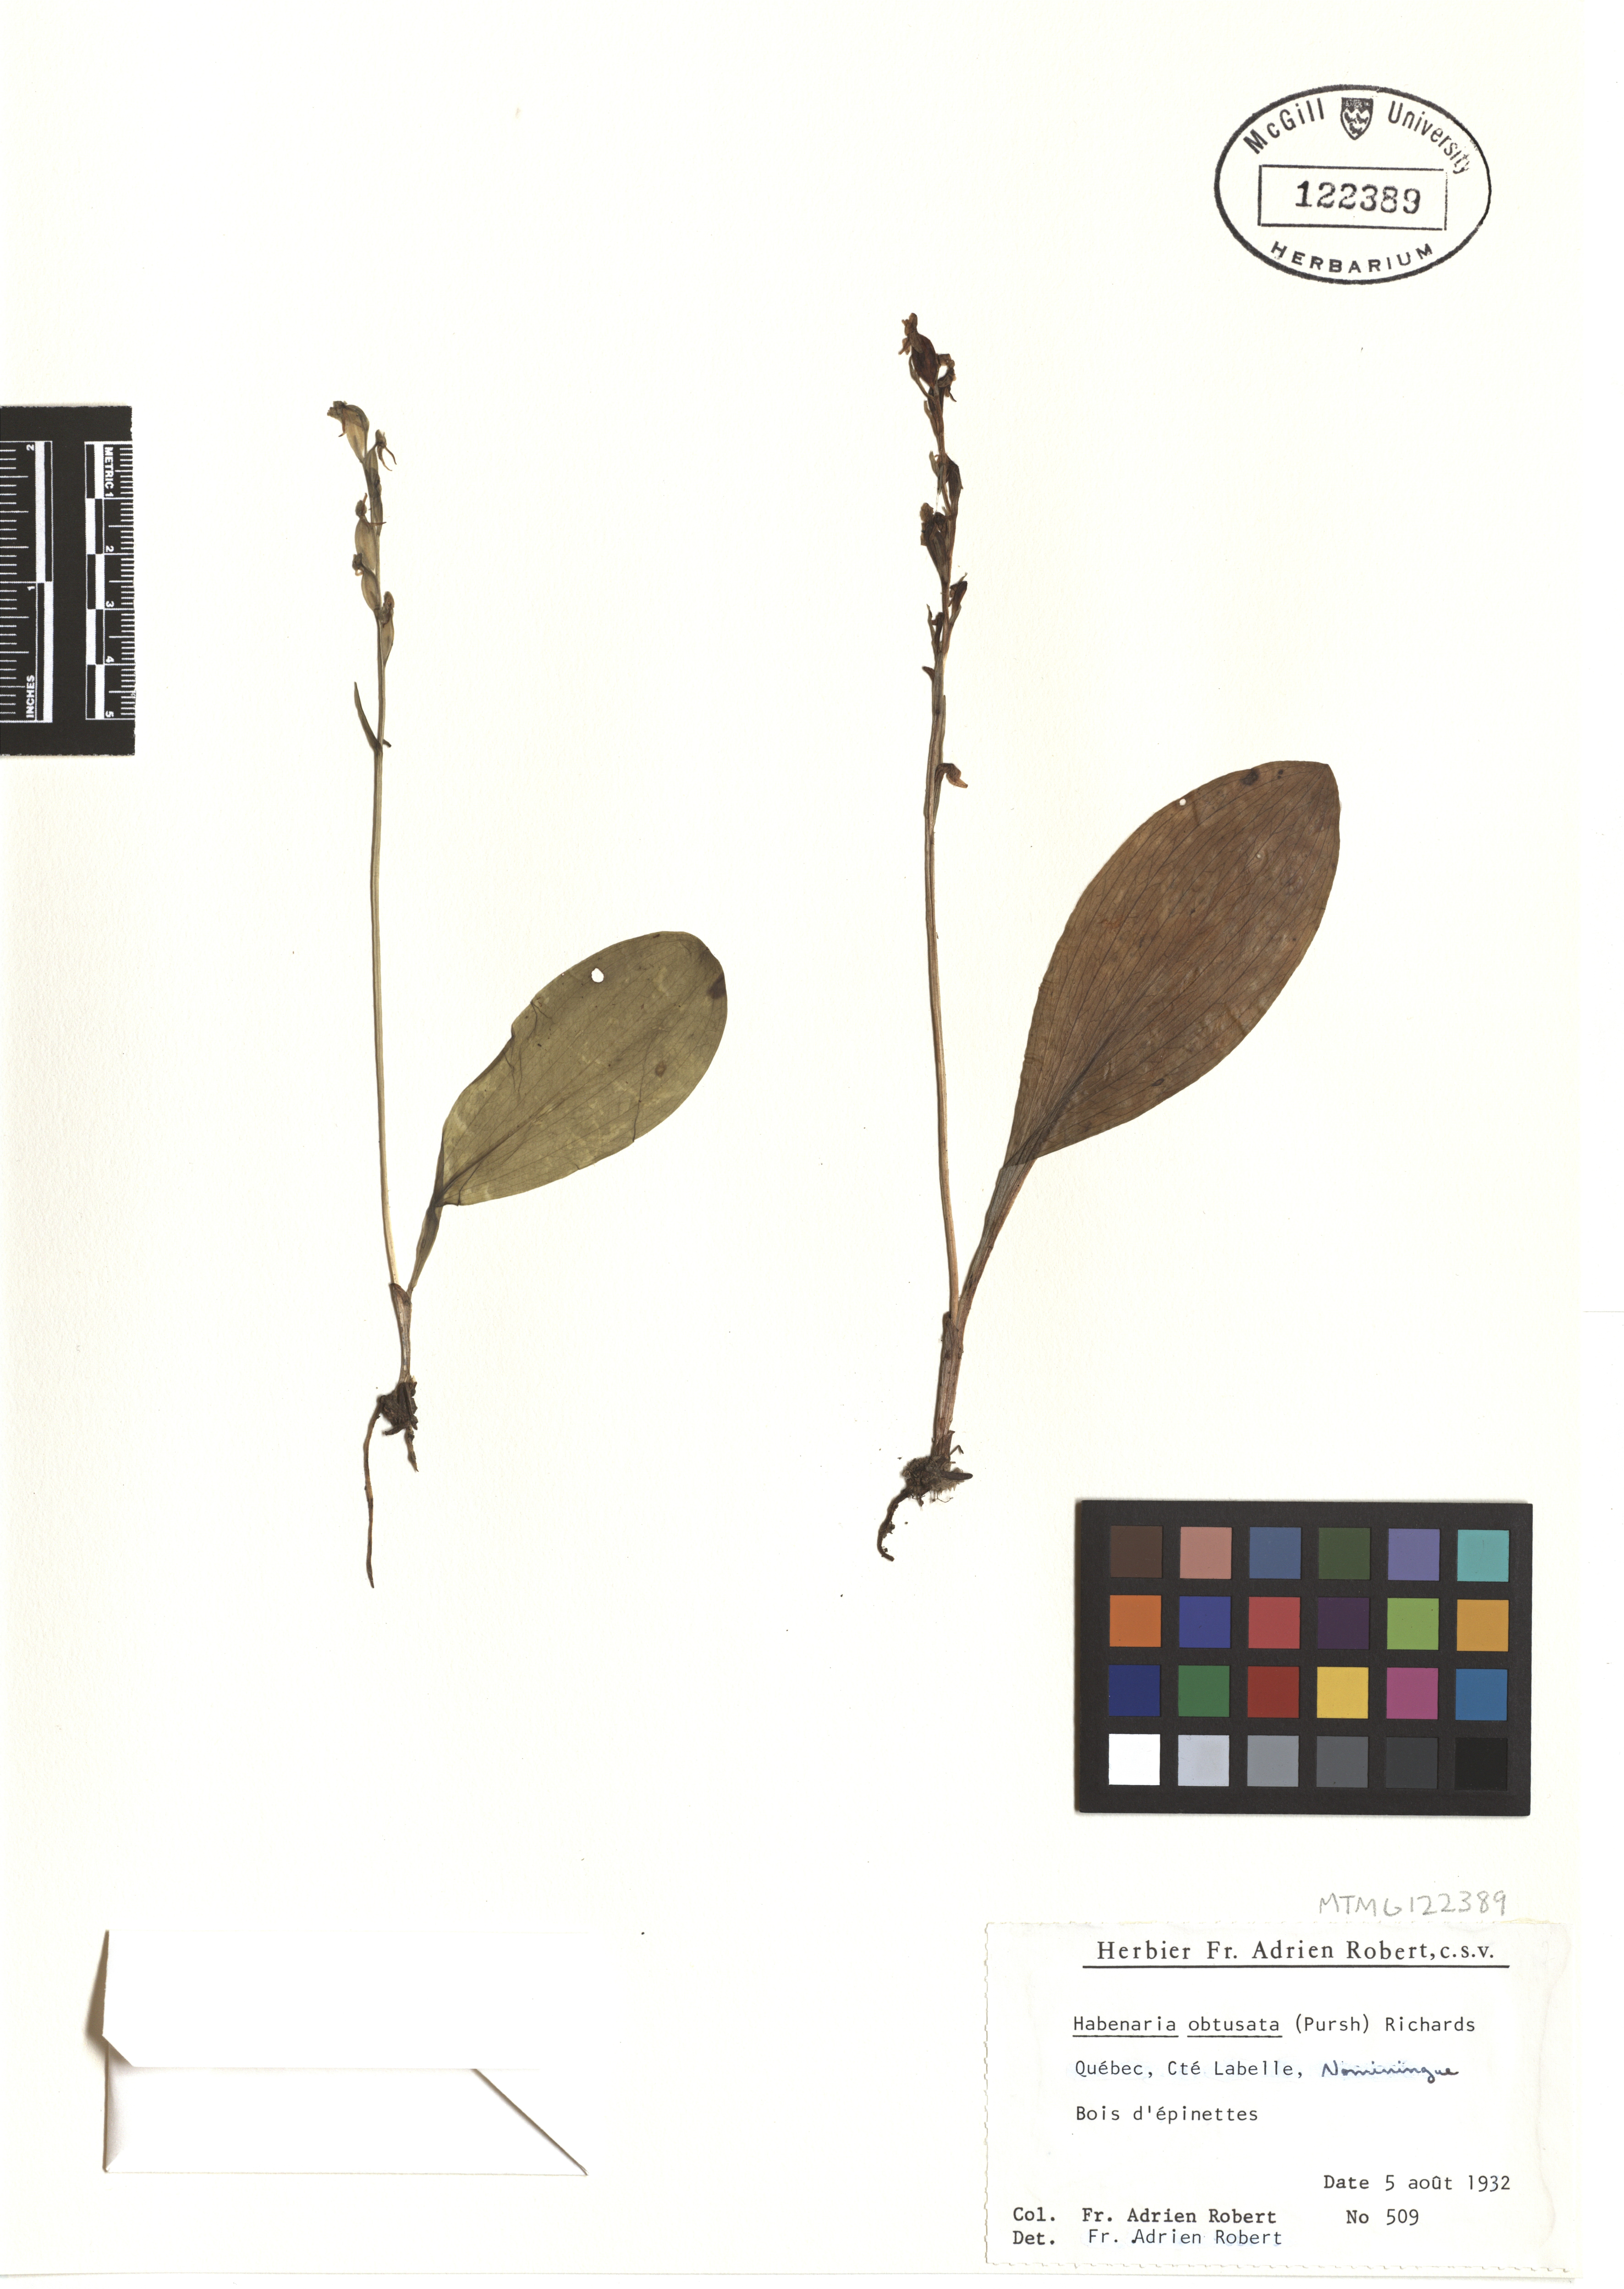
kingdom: Plantae
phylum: Tracheophyta
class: Liliopsida
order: Asparagales
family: Orchidaceae
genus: Platanthera
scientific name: Platanthera obtusata
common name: Blunt bog orchid
